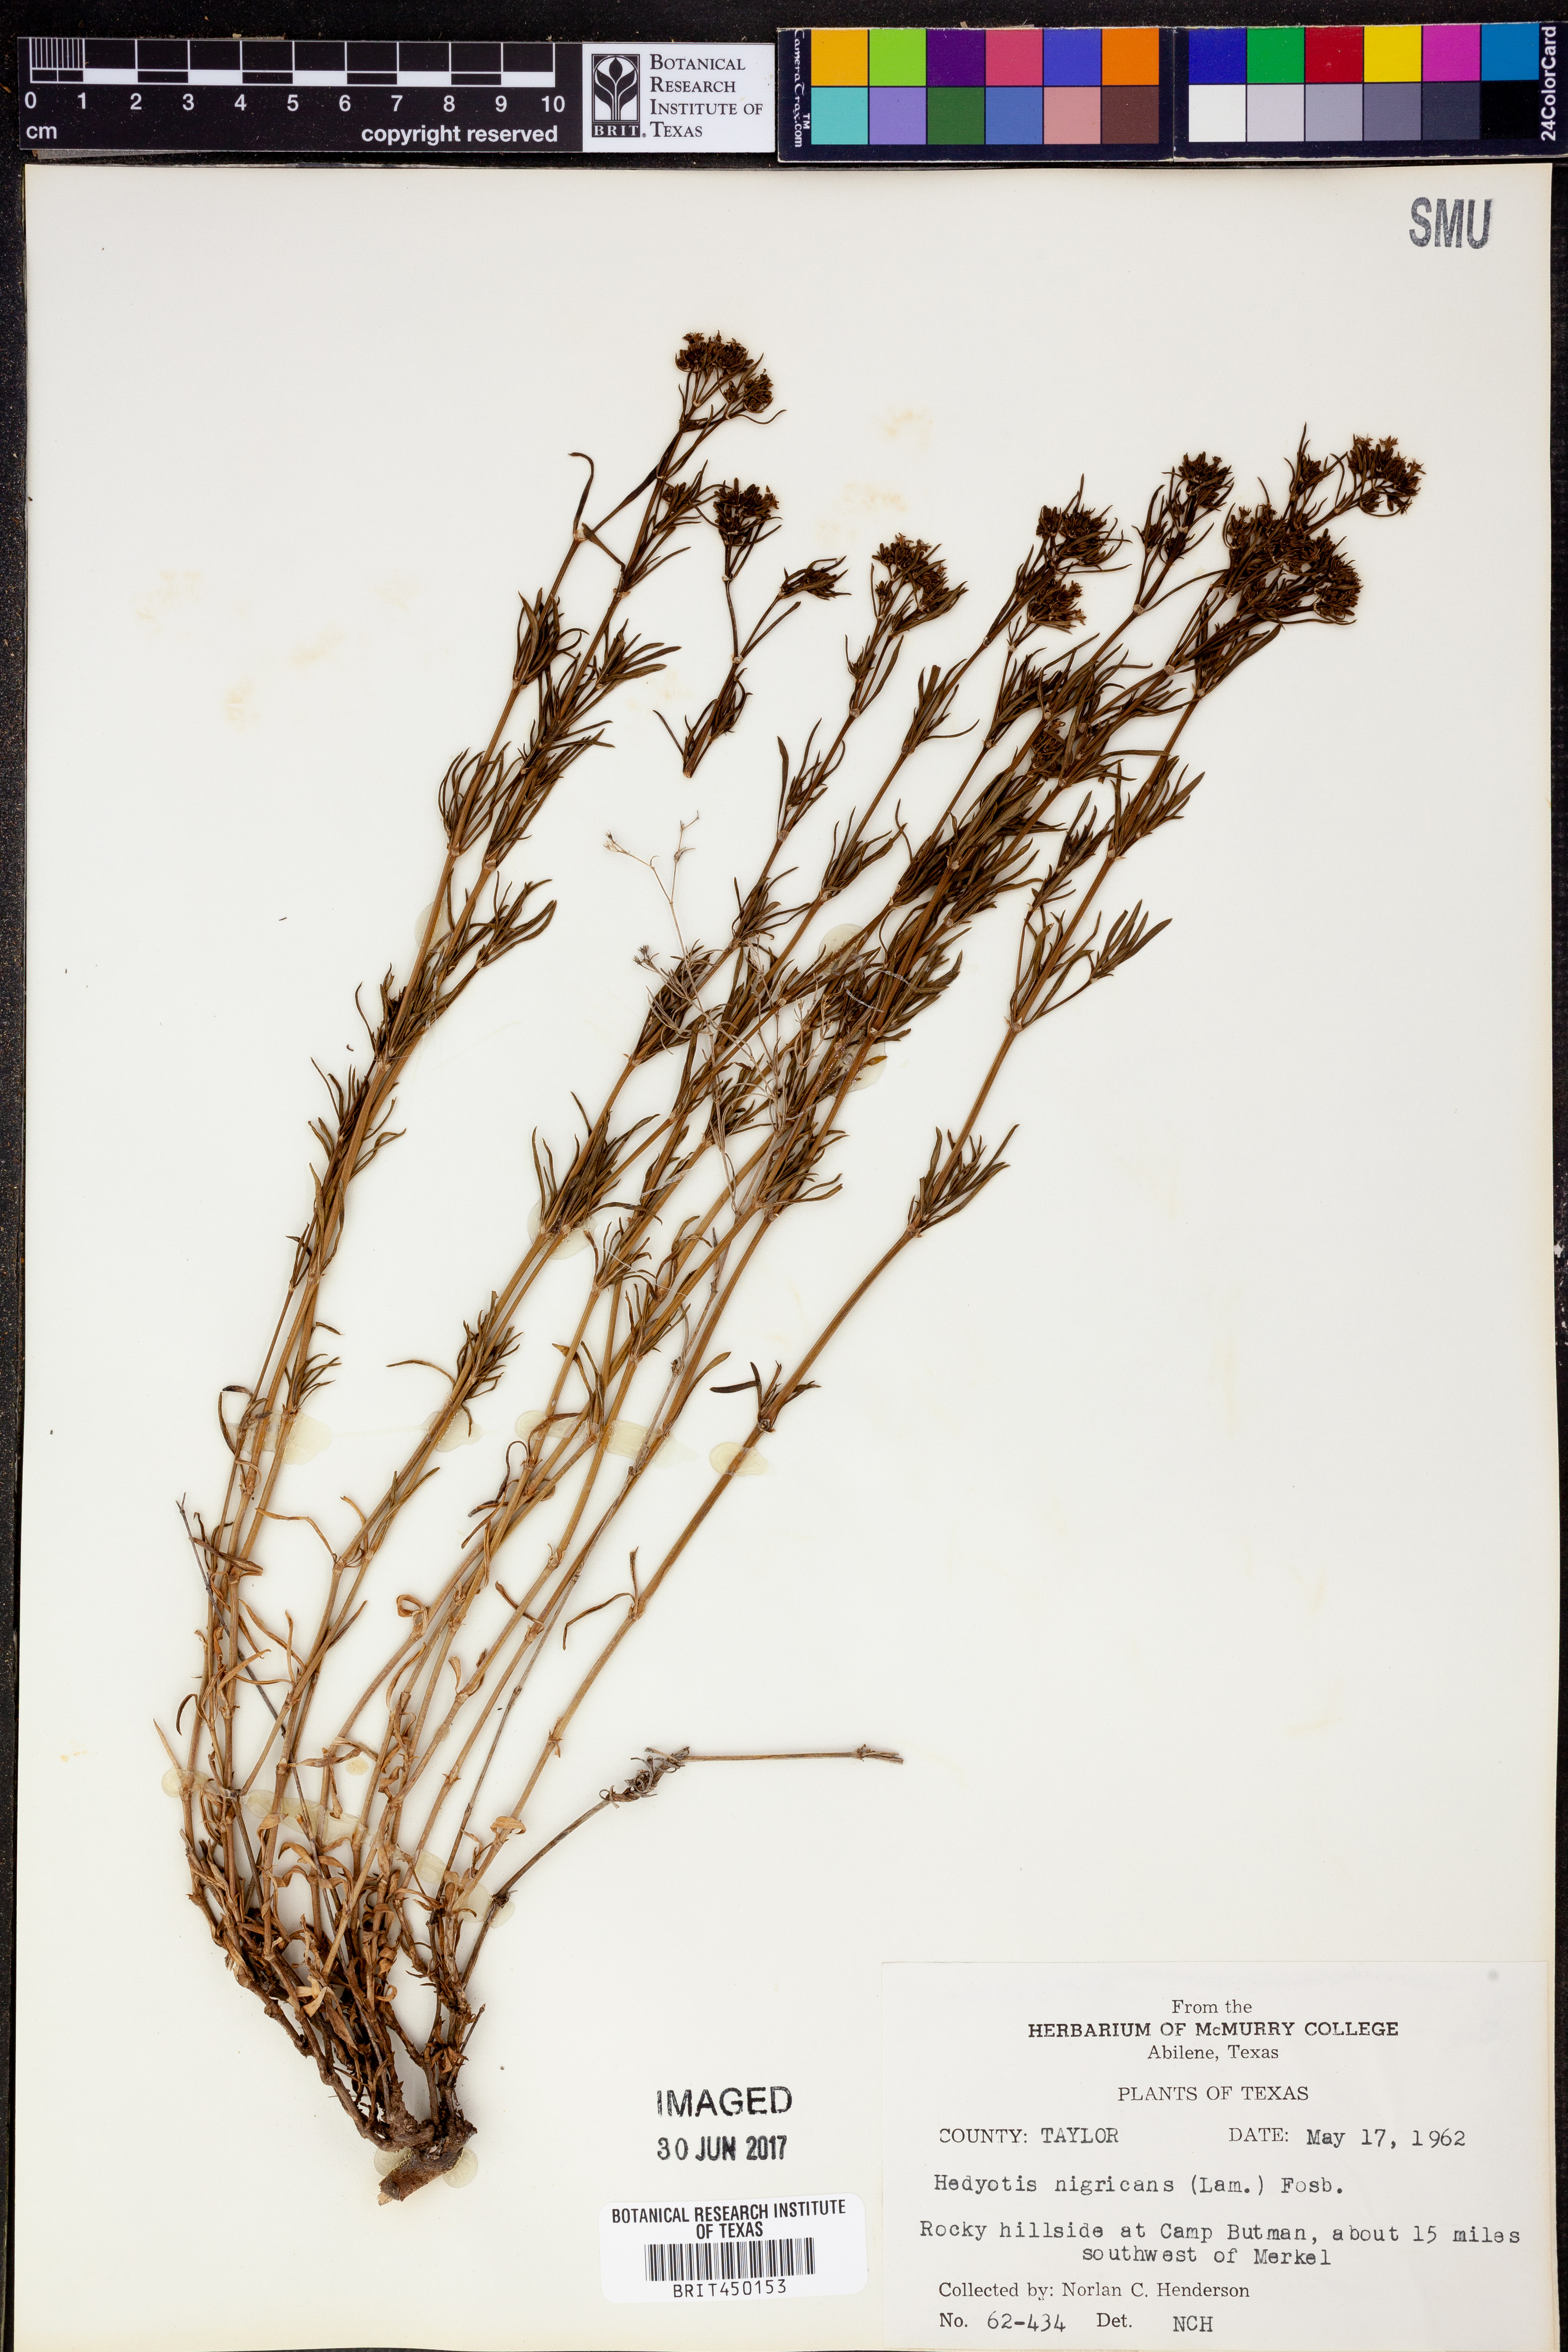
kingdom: Plantae
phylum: Tracheophyta
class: Magnoliopsida
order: Gentianales
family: Rubiaceae
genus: Stenaria
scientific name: Stenaria nigricans
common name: Diamondflowers
